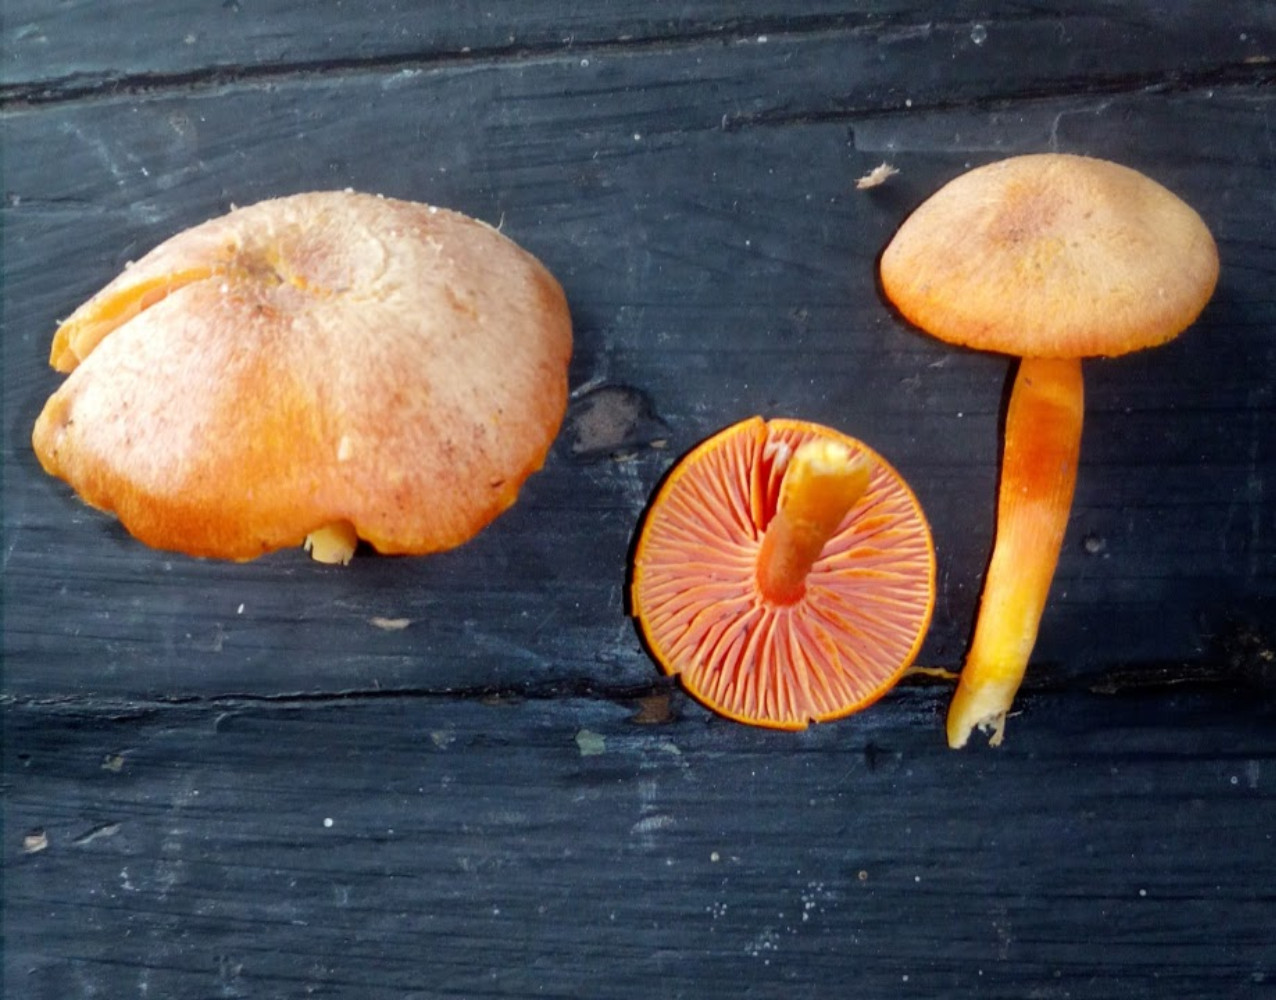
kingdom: Fungi
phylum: Basidiomycota
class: Agaricomycetes
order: Agaricales
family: Hygrophoraceae
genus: Hygrocybe
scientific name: Hygrocybe miniata
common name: mønje-vokshat
